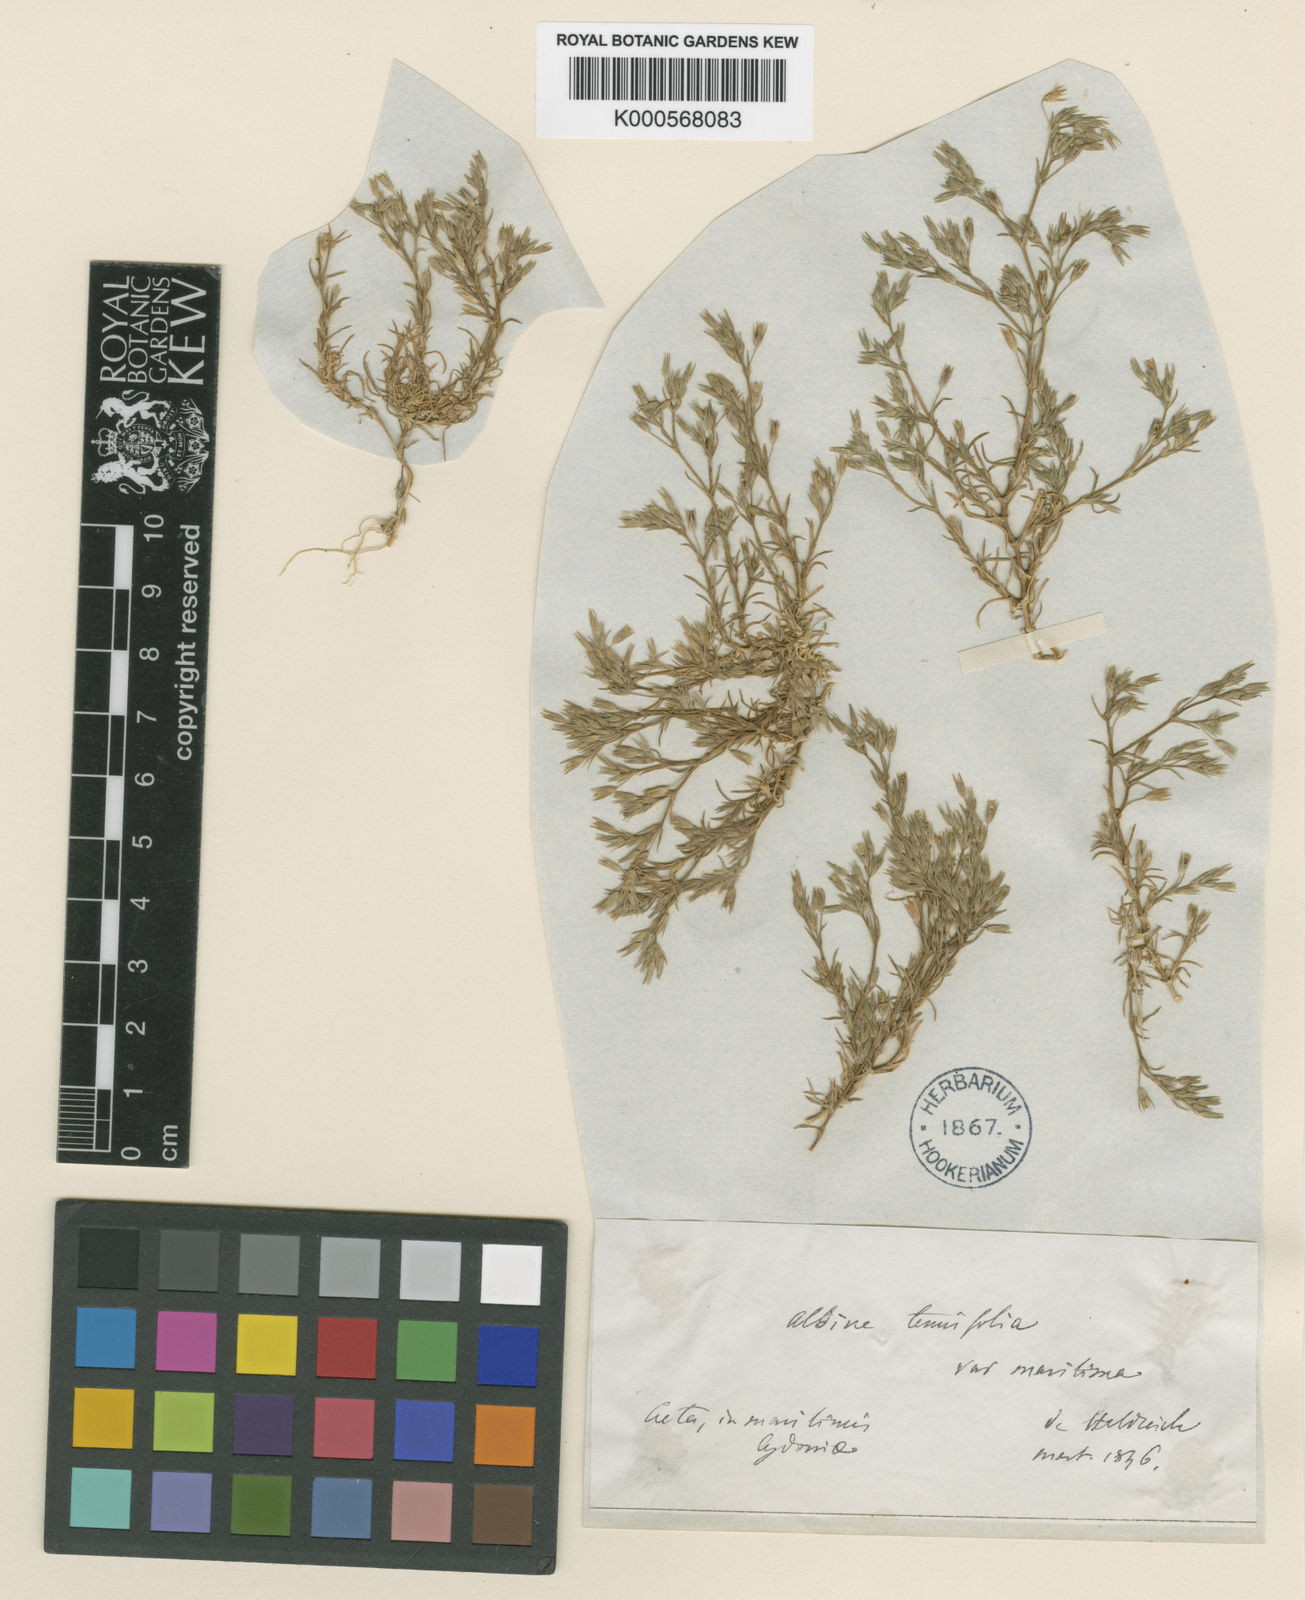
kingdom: Plantae
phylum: Tracheophyta
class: Magnoliopsida
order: Caryophyllales
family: Caryophyllaceae
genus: Minuartia
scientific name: Minuartia
